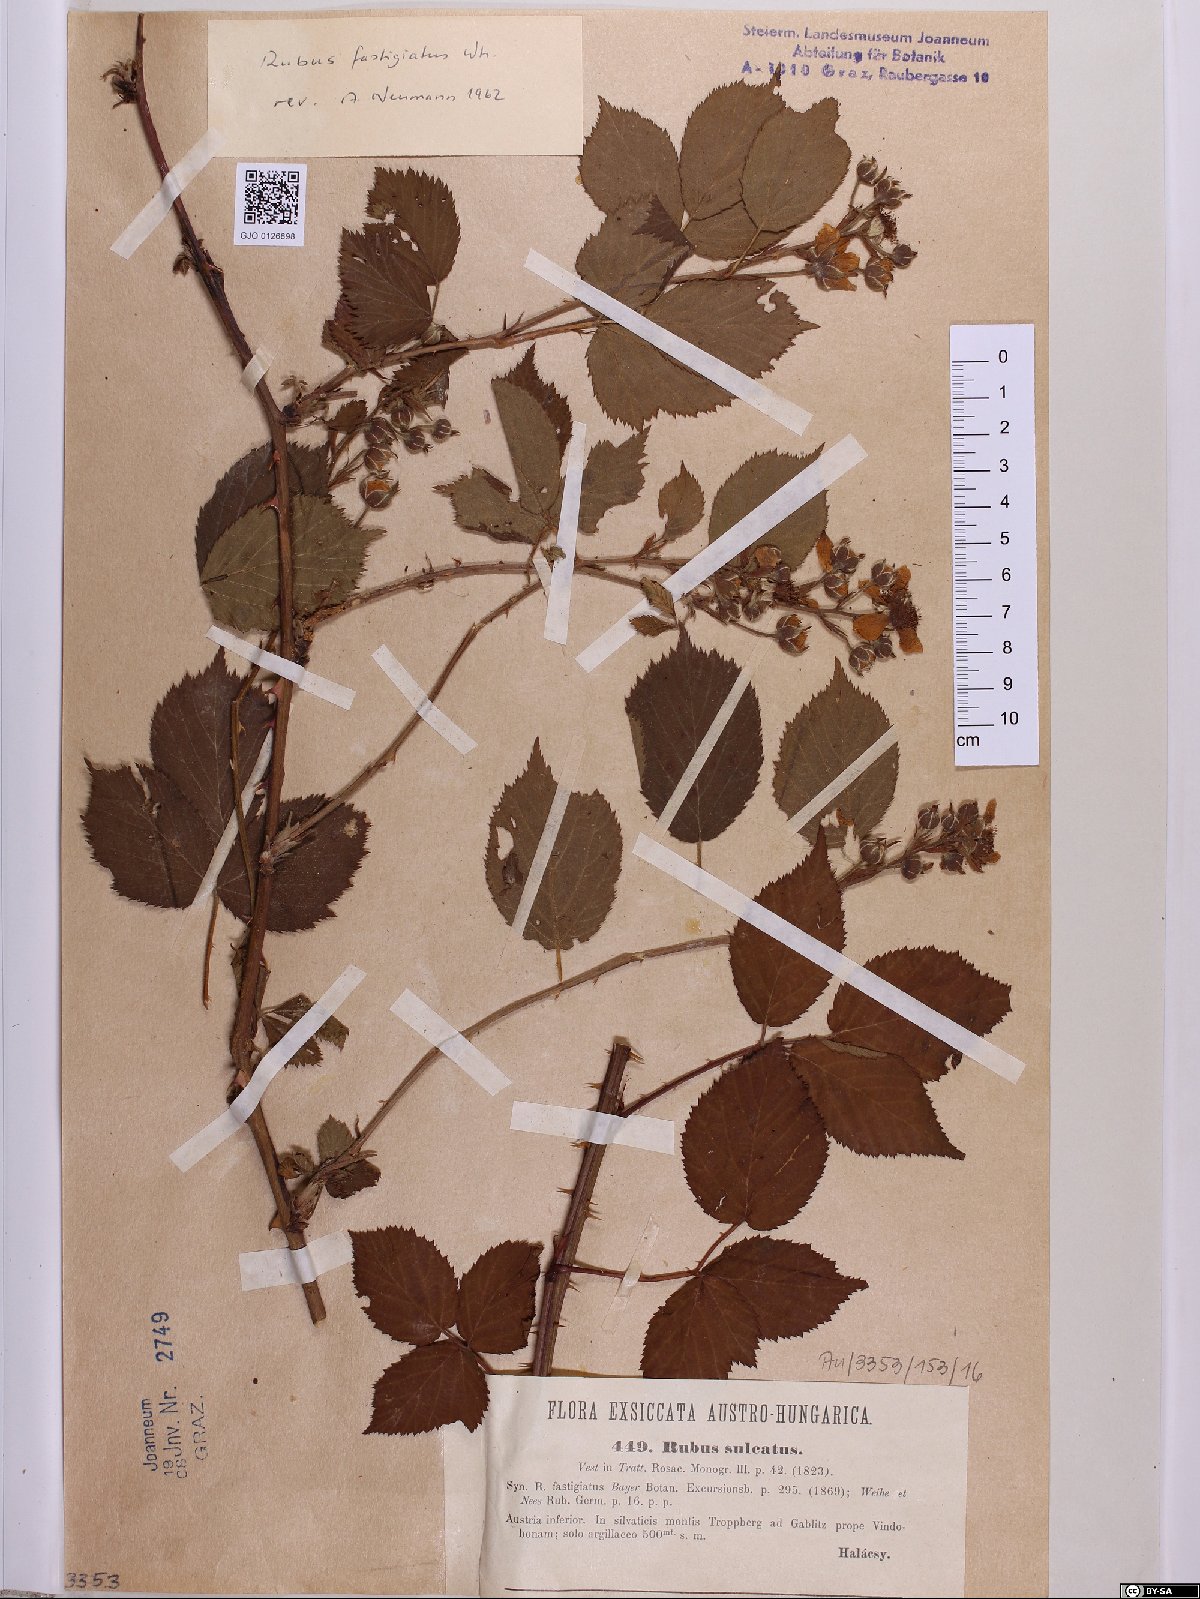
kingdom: Plantae
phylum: Tracheophyta
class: Magnoliopsida
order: Rosales
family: Rosaceae
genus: Rubus
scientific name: Rubus polonicus
